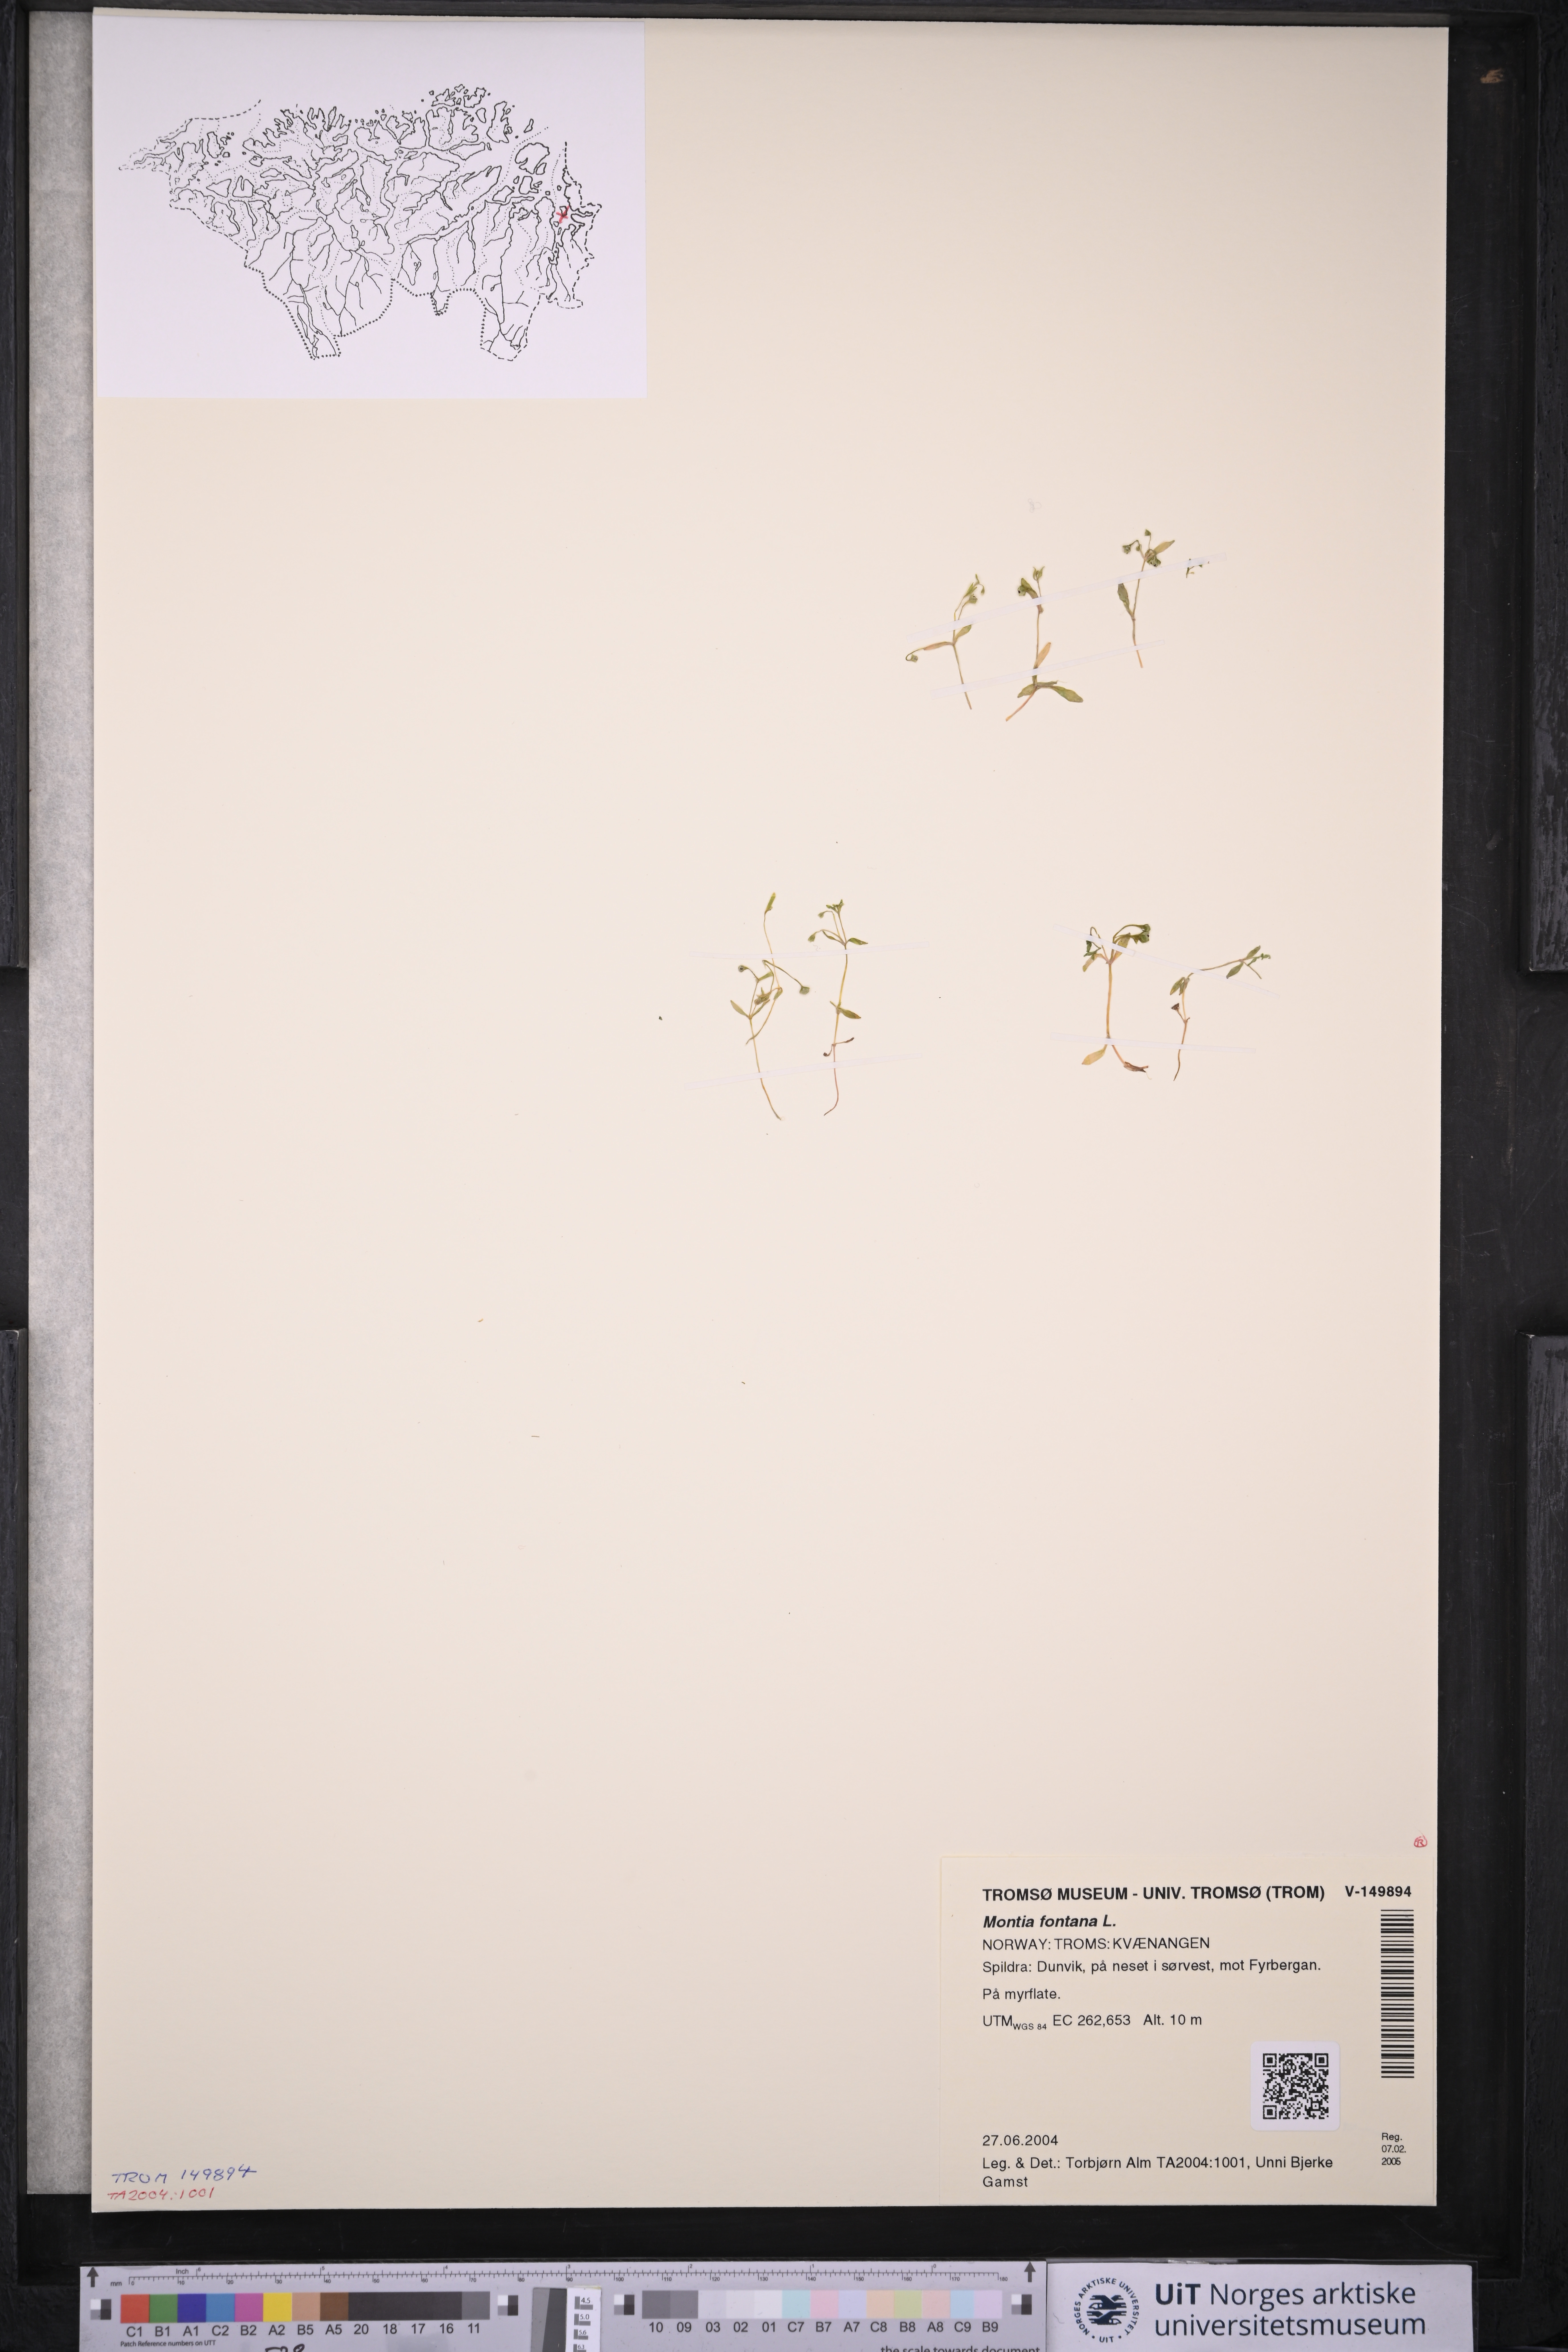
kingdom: Plantae
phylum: Tracheophyta
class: Magnoliopsida
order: Caryophyllales
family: Montiaceae
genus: Montia
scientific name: Montia fontana
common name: Blinks
